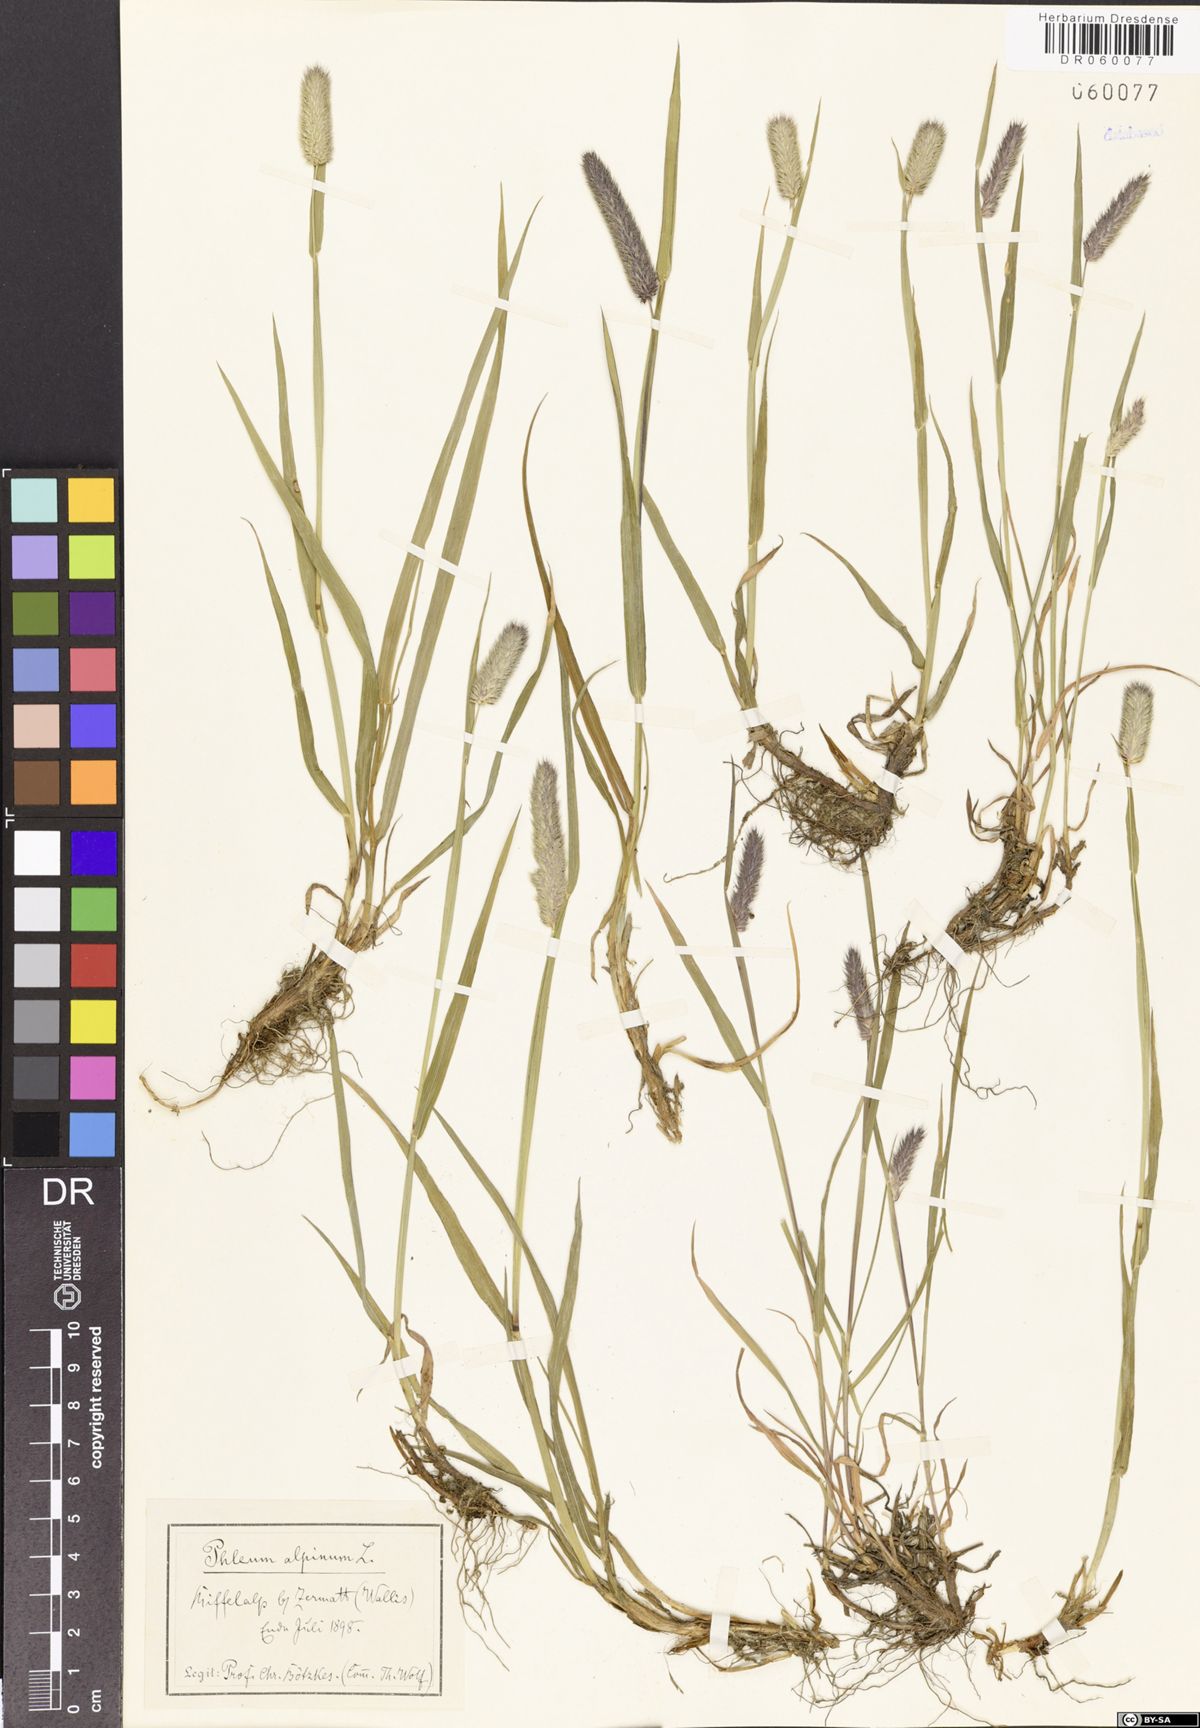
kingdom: Plantae
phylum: Tracheophyta
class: Liliopsida
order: Poales
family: Poaceae
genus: Phleum
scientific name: Phleum alpinum
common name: Alpine cat's-tail
